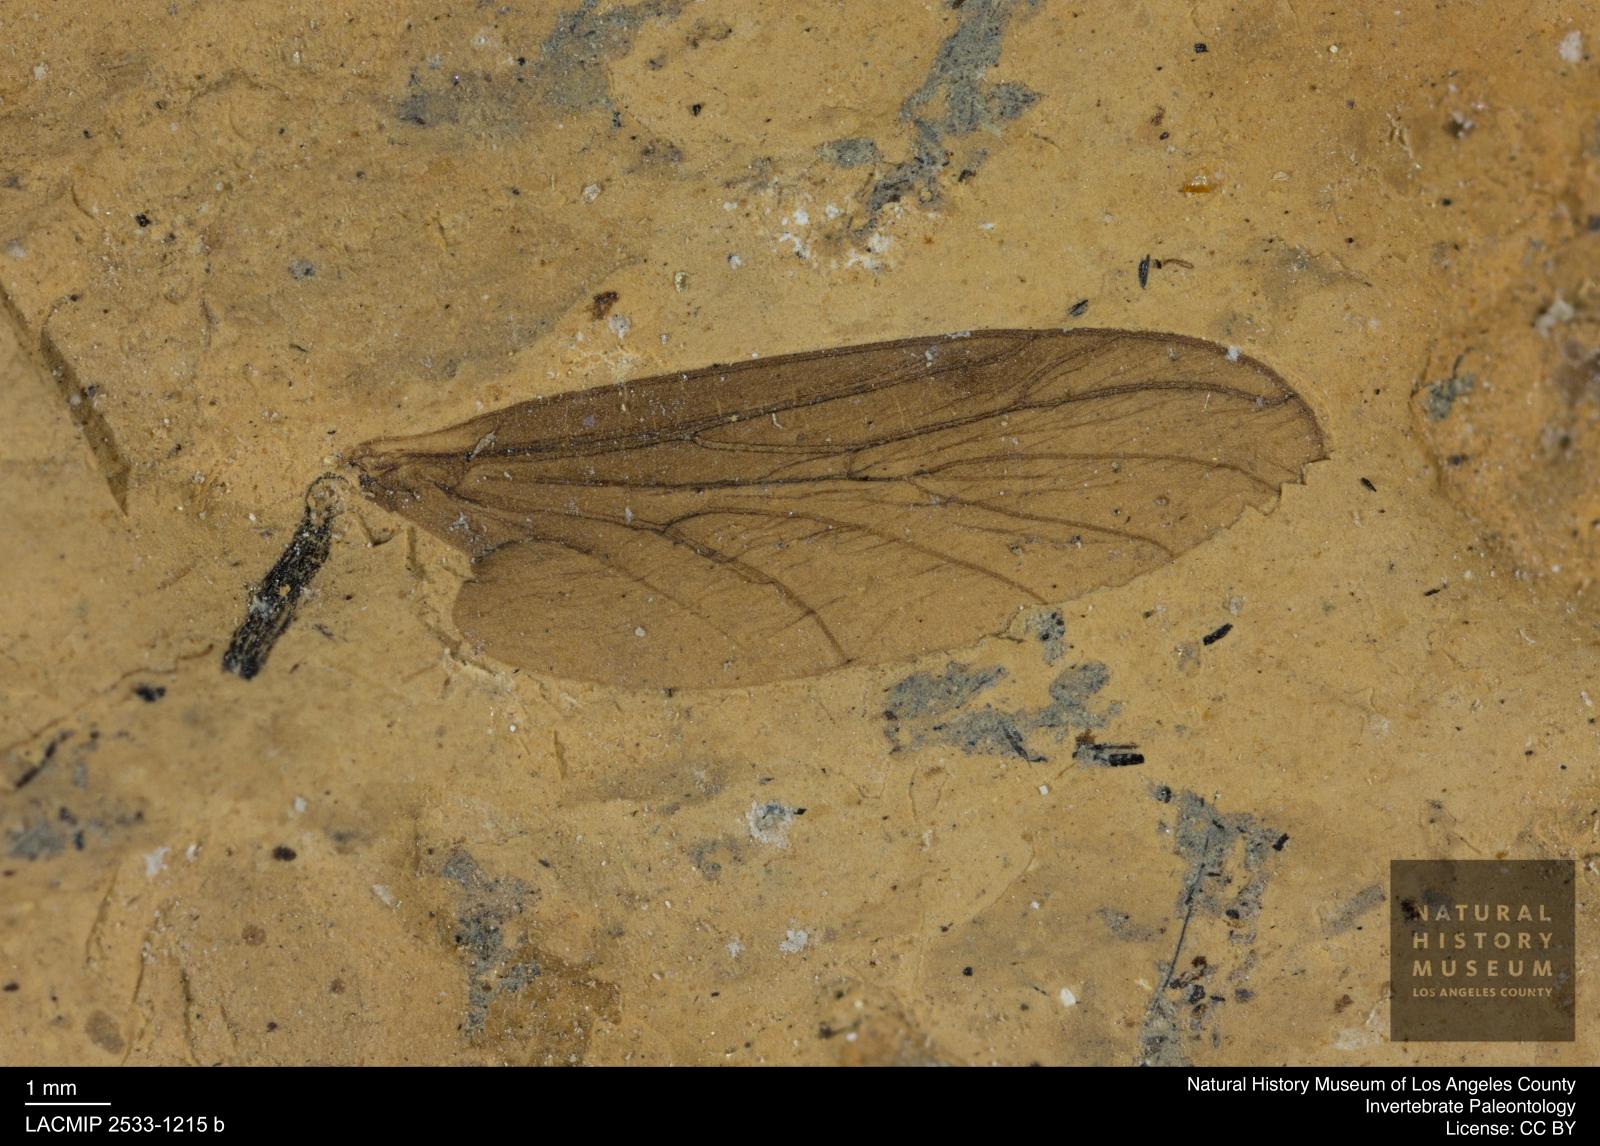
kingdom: Animalia
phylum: Arthropoda
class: Insecta
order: Diptera
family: Bibionidae
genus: Plecia
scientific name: Plecia
